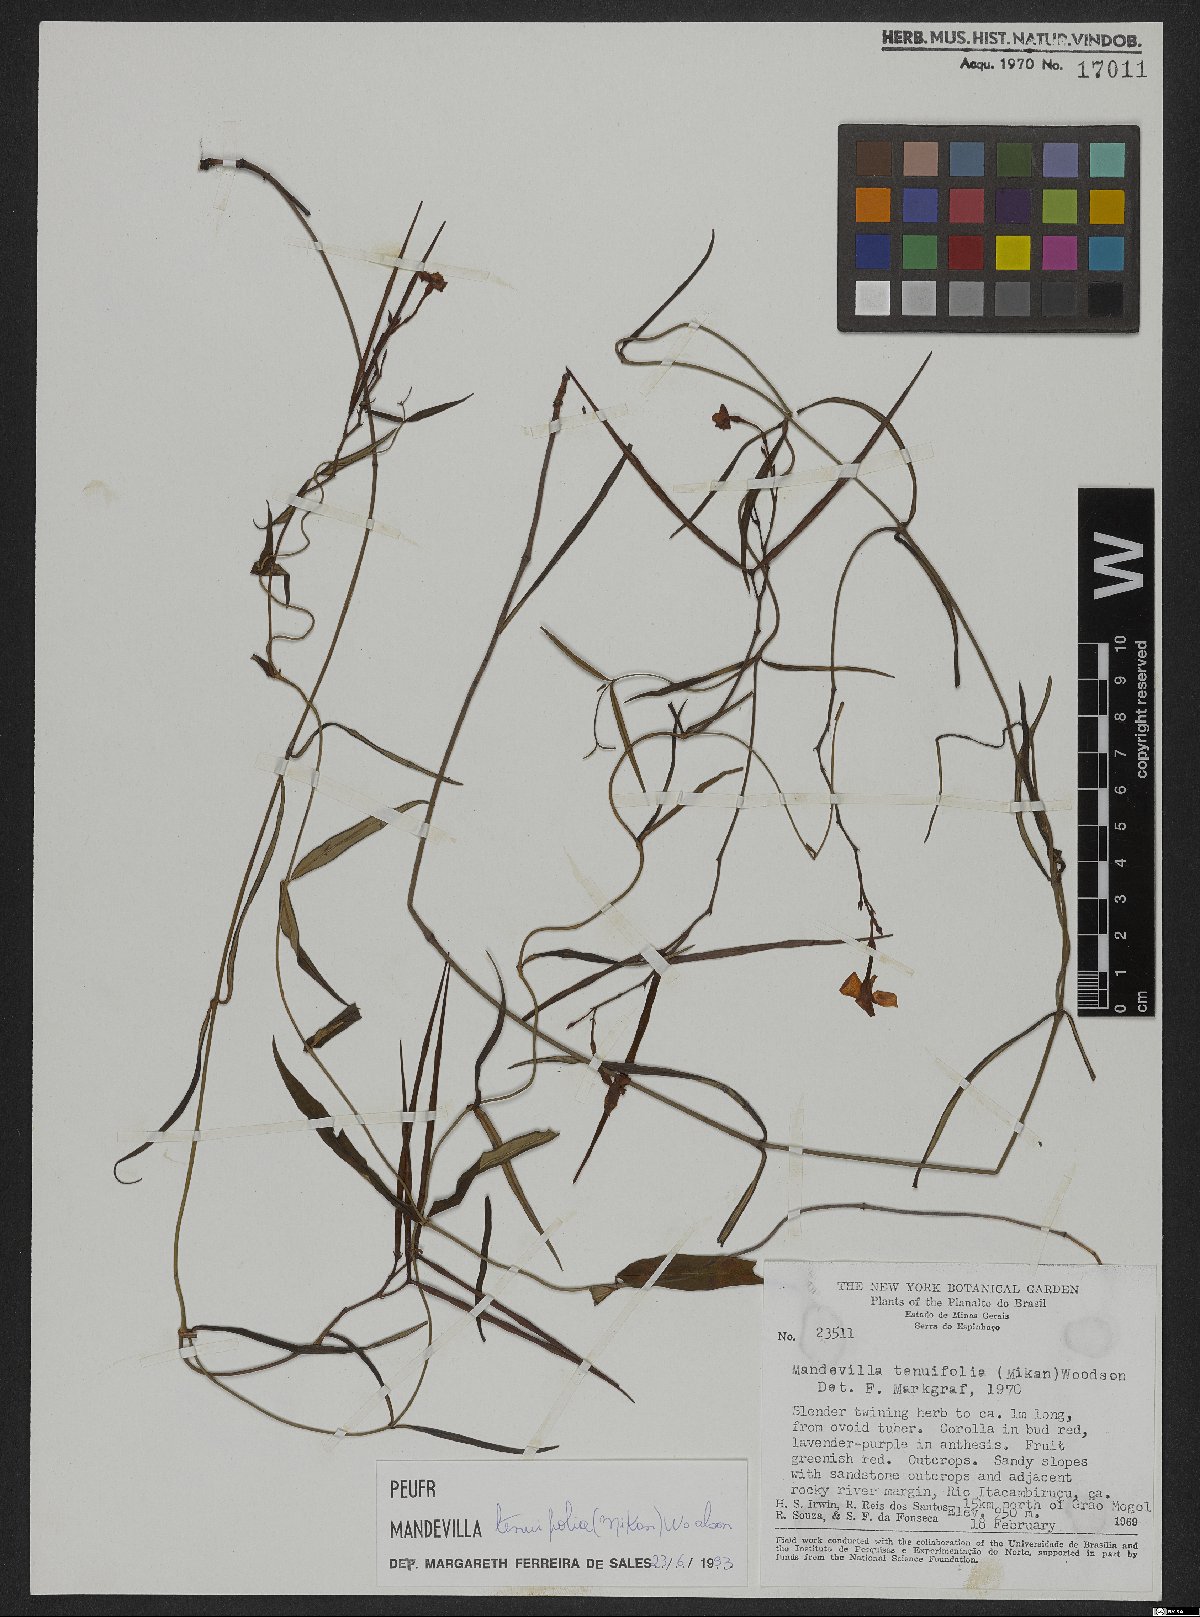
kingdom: Plantae
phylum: Tracheophyta
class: Magnoliopsida
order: Gentianales
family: Apocynaceae
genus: Mandevilla
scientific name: Mandevilla tenuifolia
